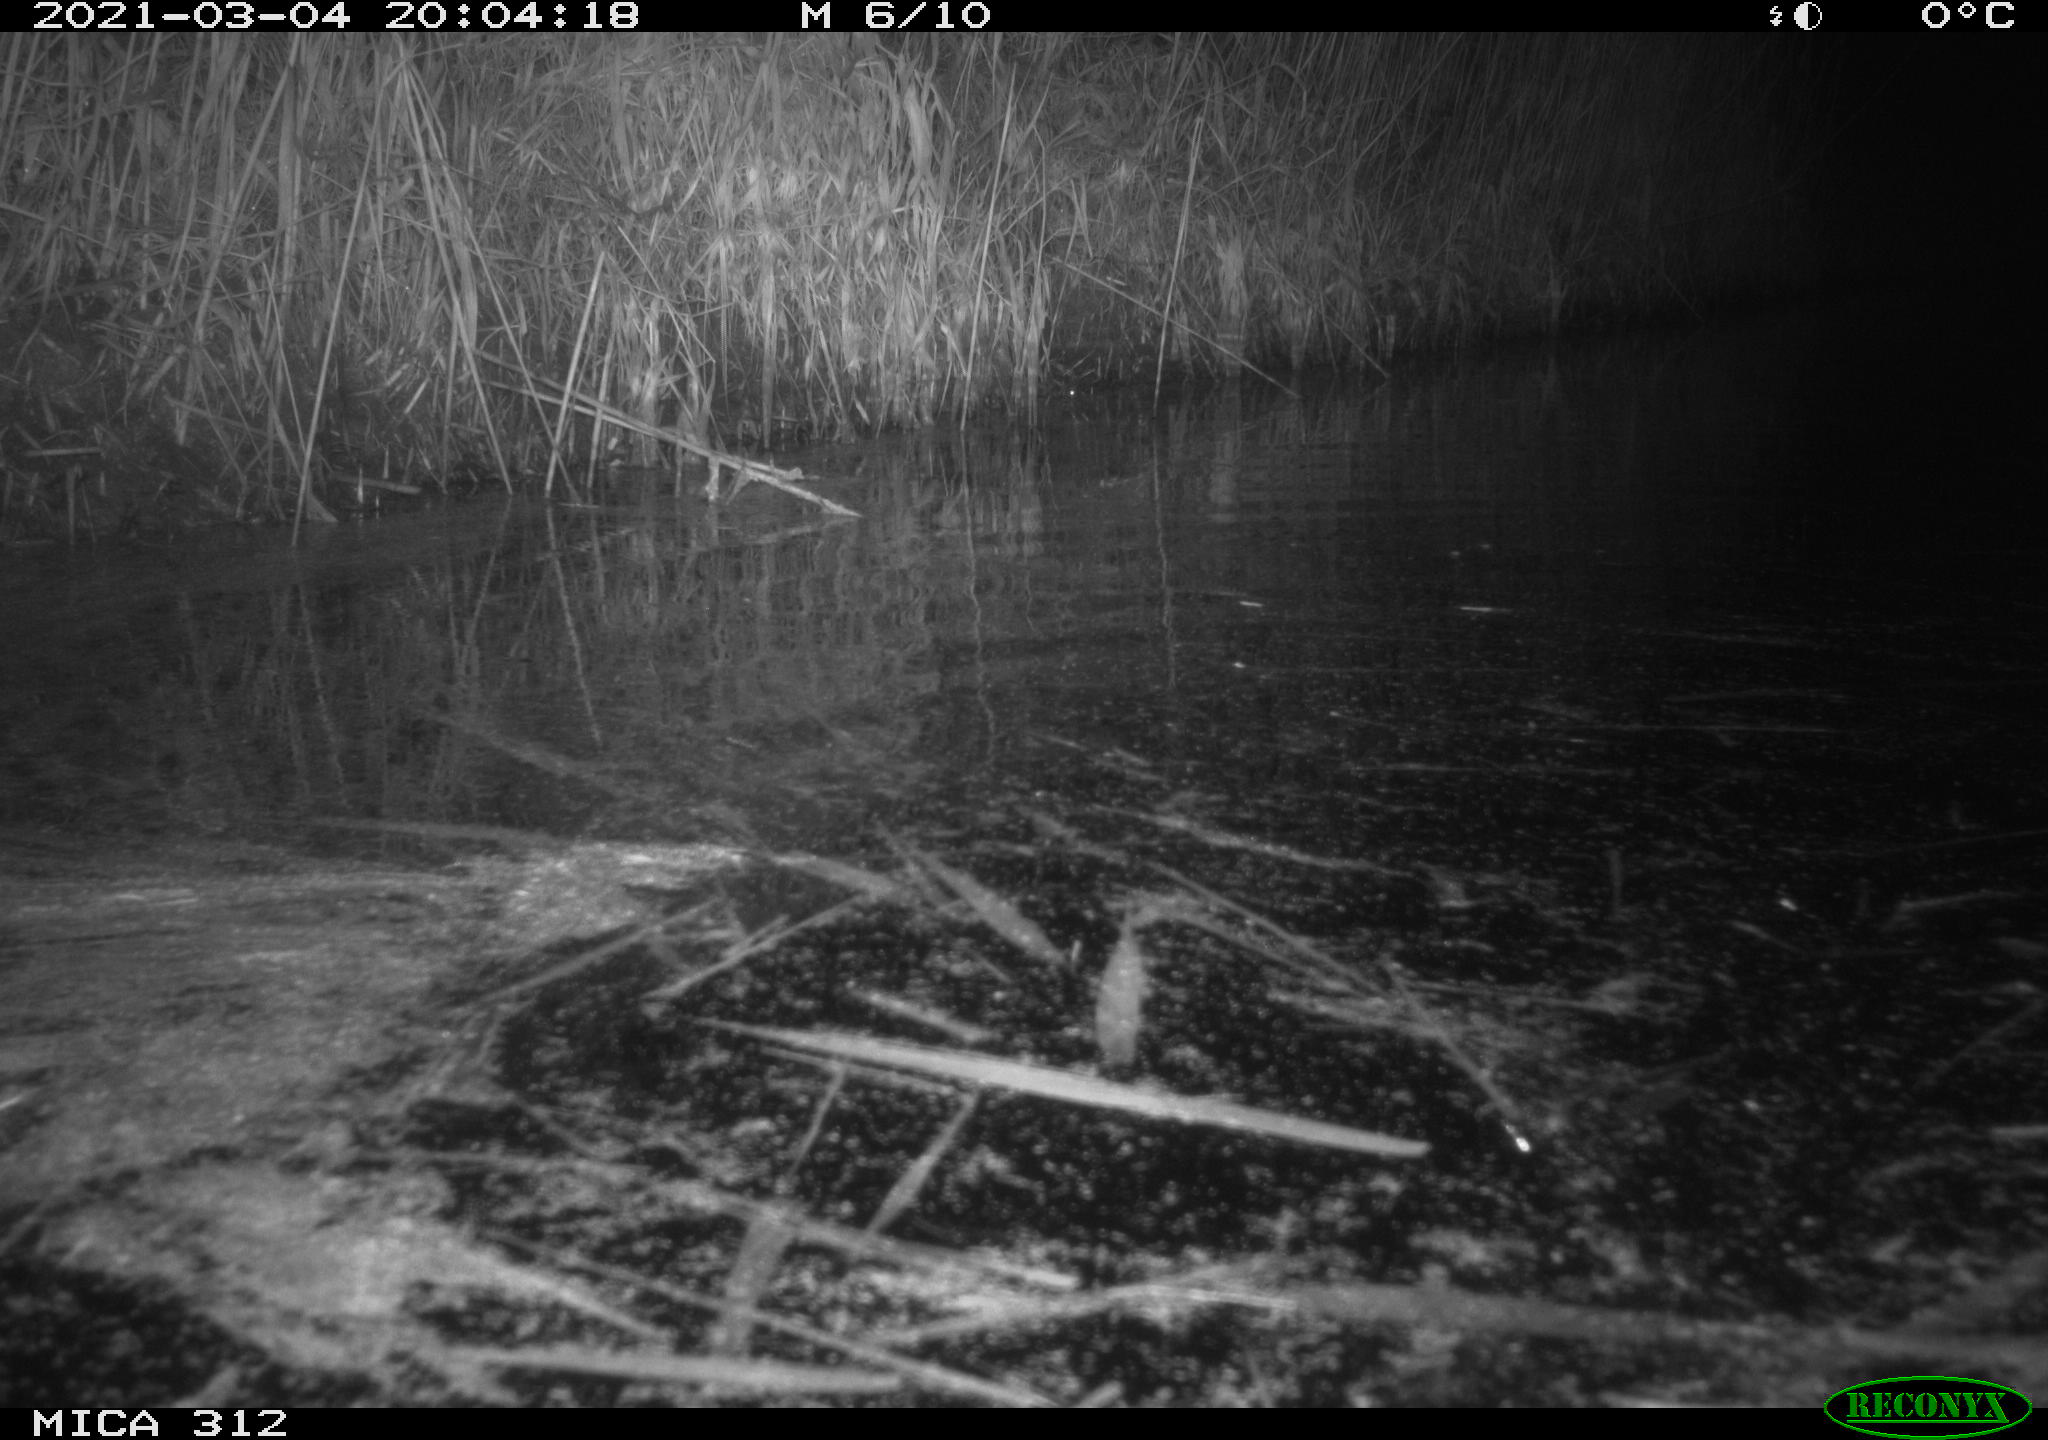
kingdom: Animalia
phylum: Chordata
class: Mammalia
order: Rodentia
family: Cricetidae
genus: Ondatra
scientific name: Ondatra zibethicus
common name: Muskrat
